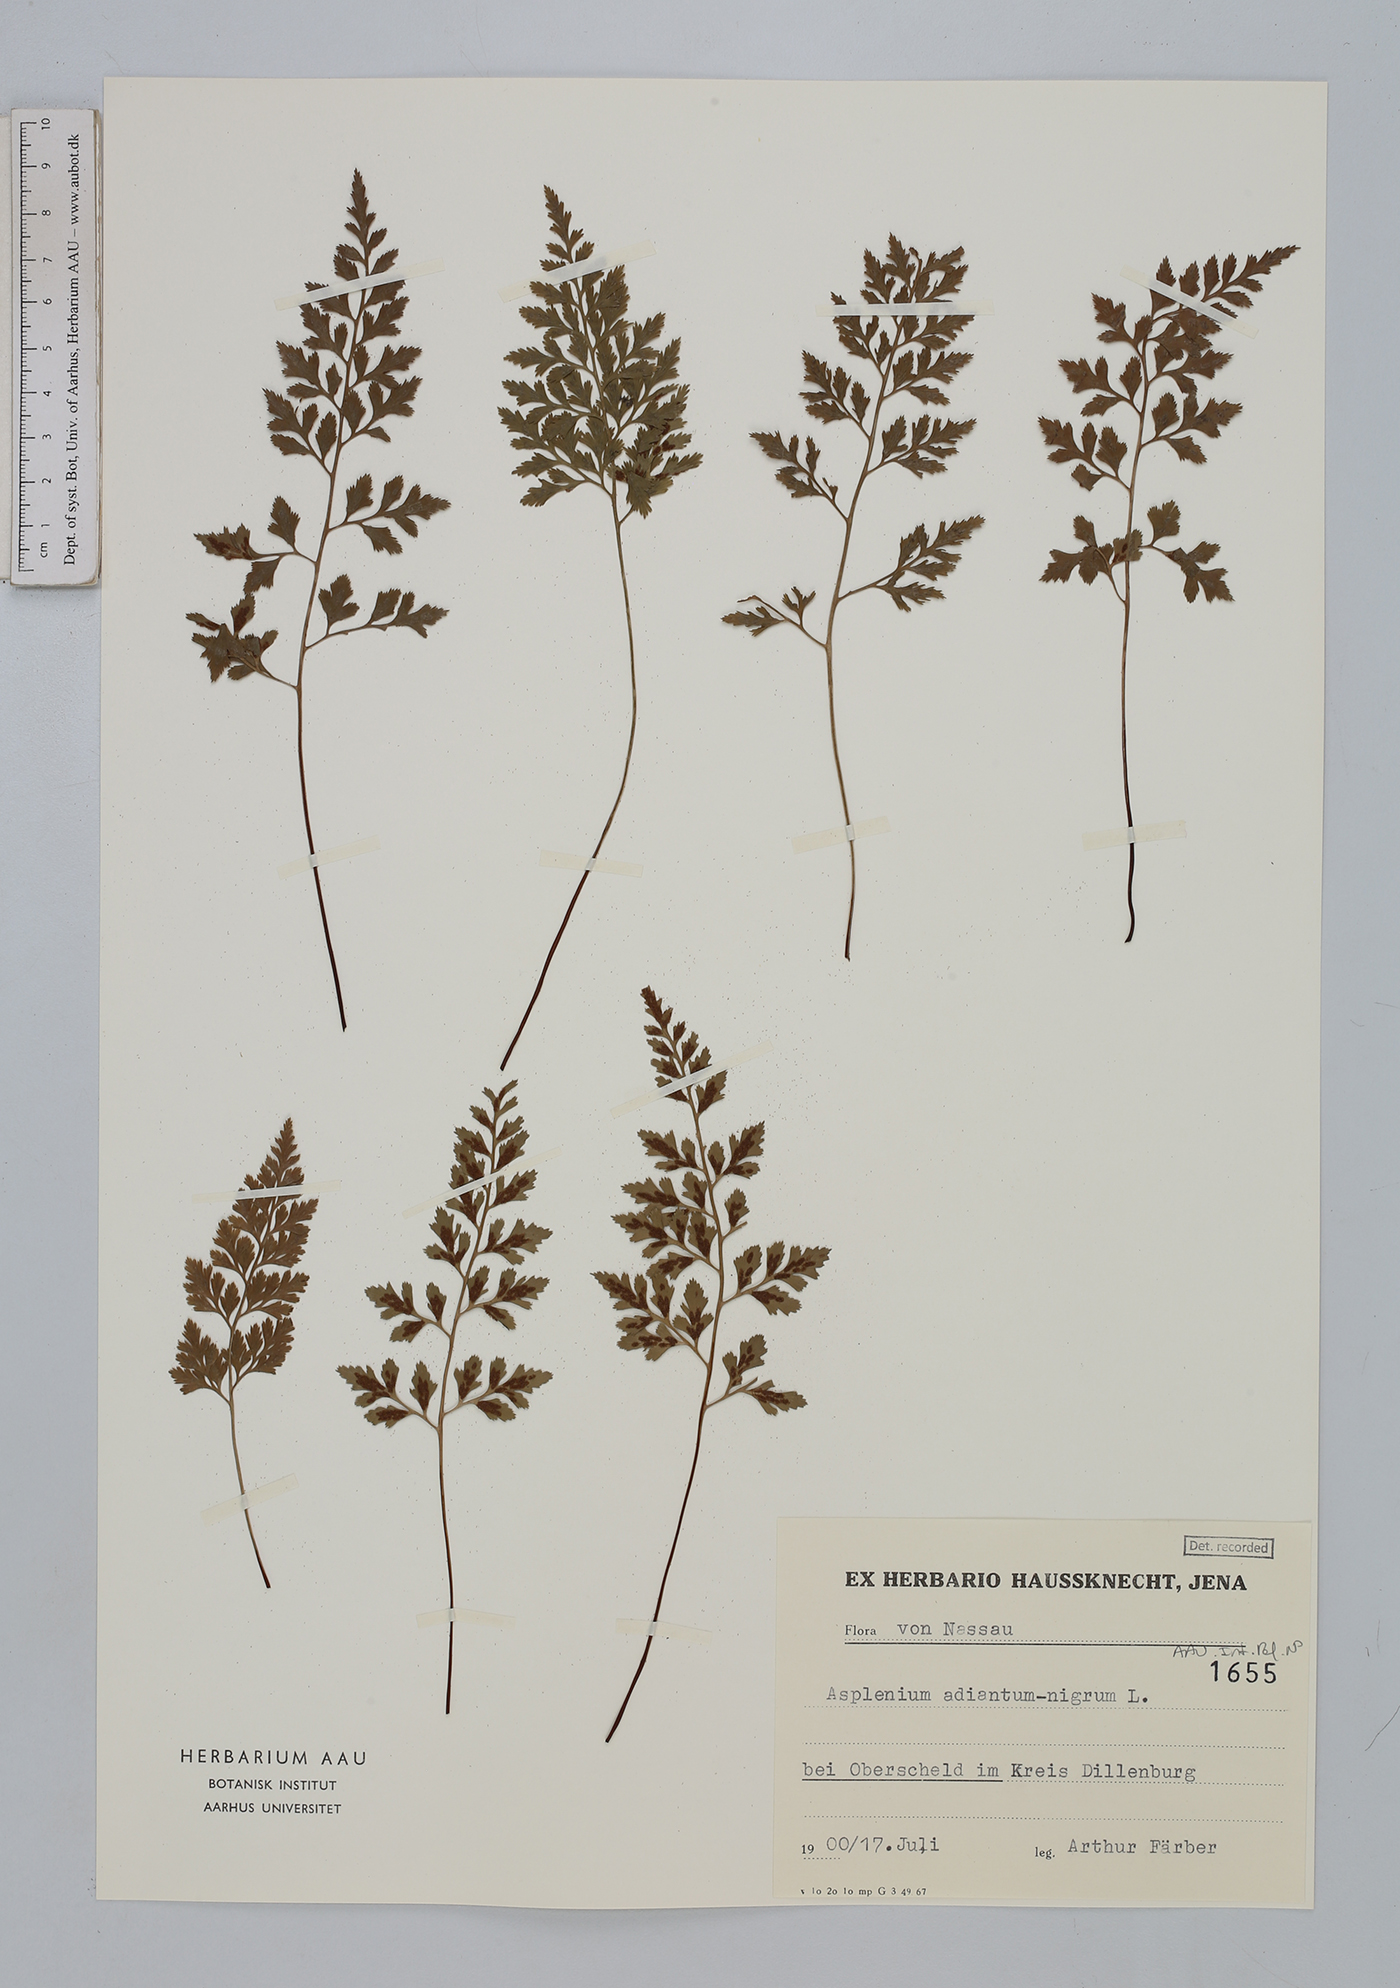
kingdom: Plantae
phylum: Tracheophyta
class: Polypodiopsida
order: Polypodiales
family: Aspleniaceae
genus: Asplenium
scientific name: Asplenium adiantum-nigrum
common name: Black spleenwort
